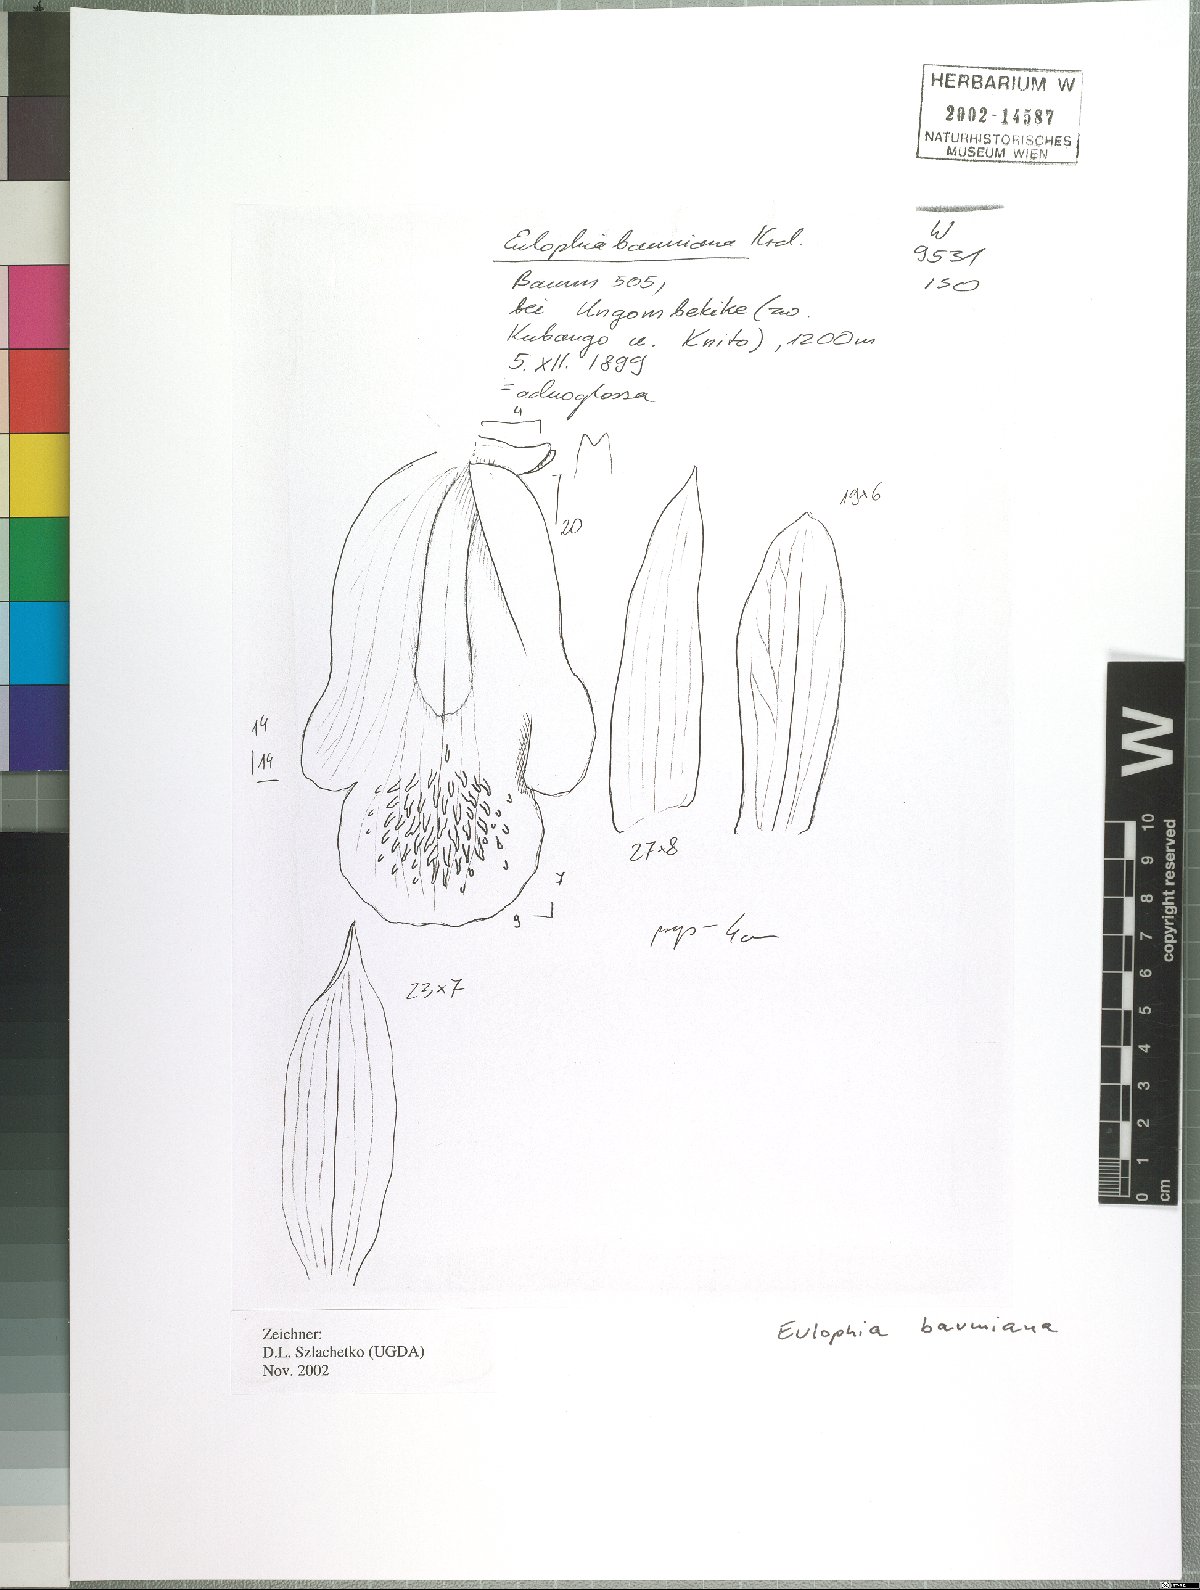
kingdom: Plantae
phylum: Tracheophyta
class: Liliopsida
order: Asparagales
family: Orchidaceae
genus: Eulophia
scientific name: Eulophia adenoglossa
